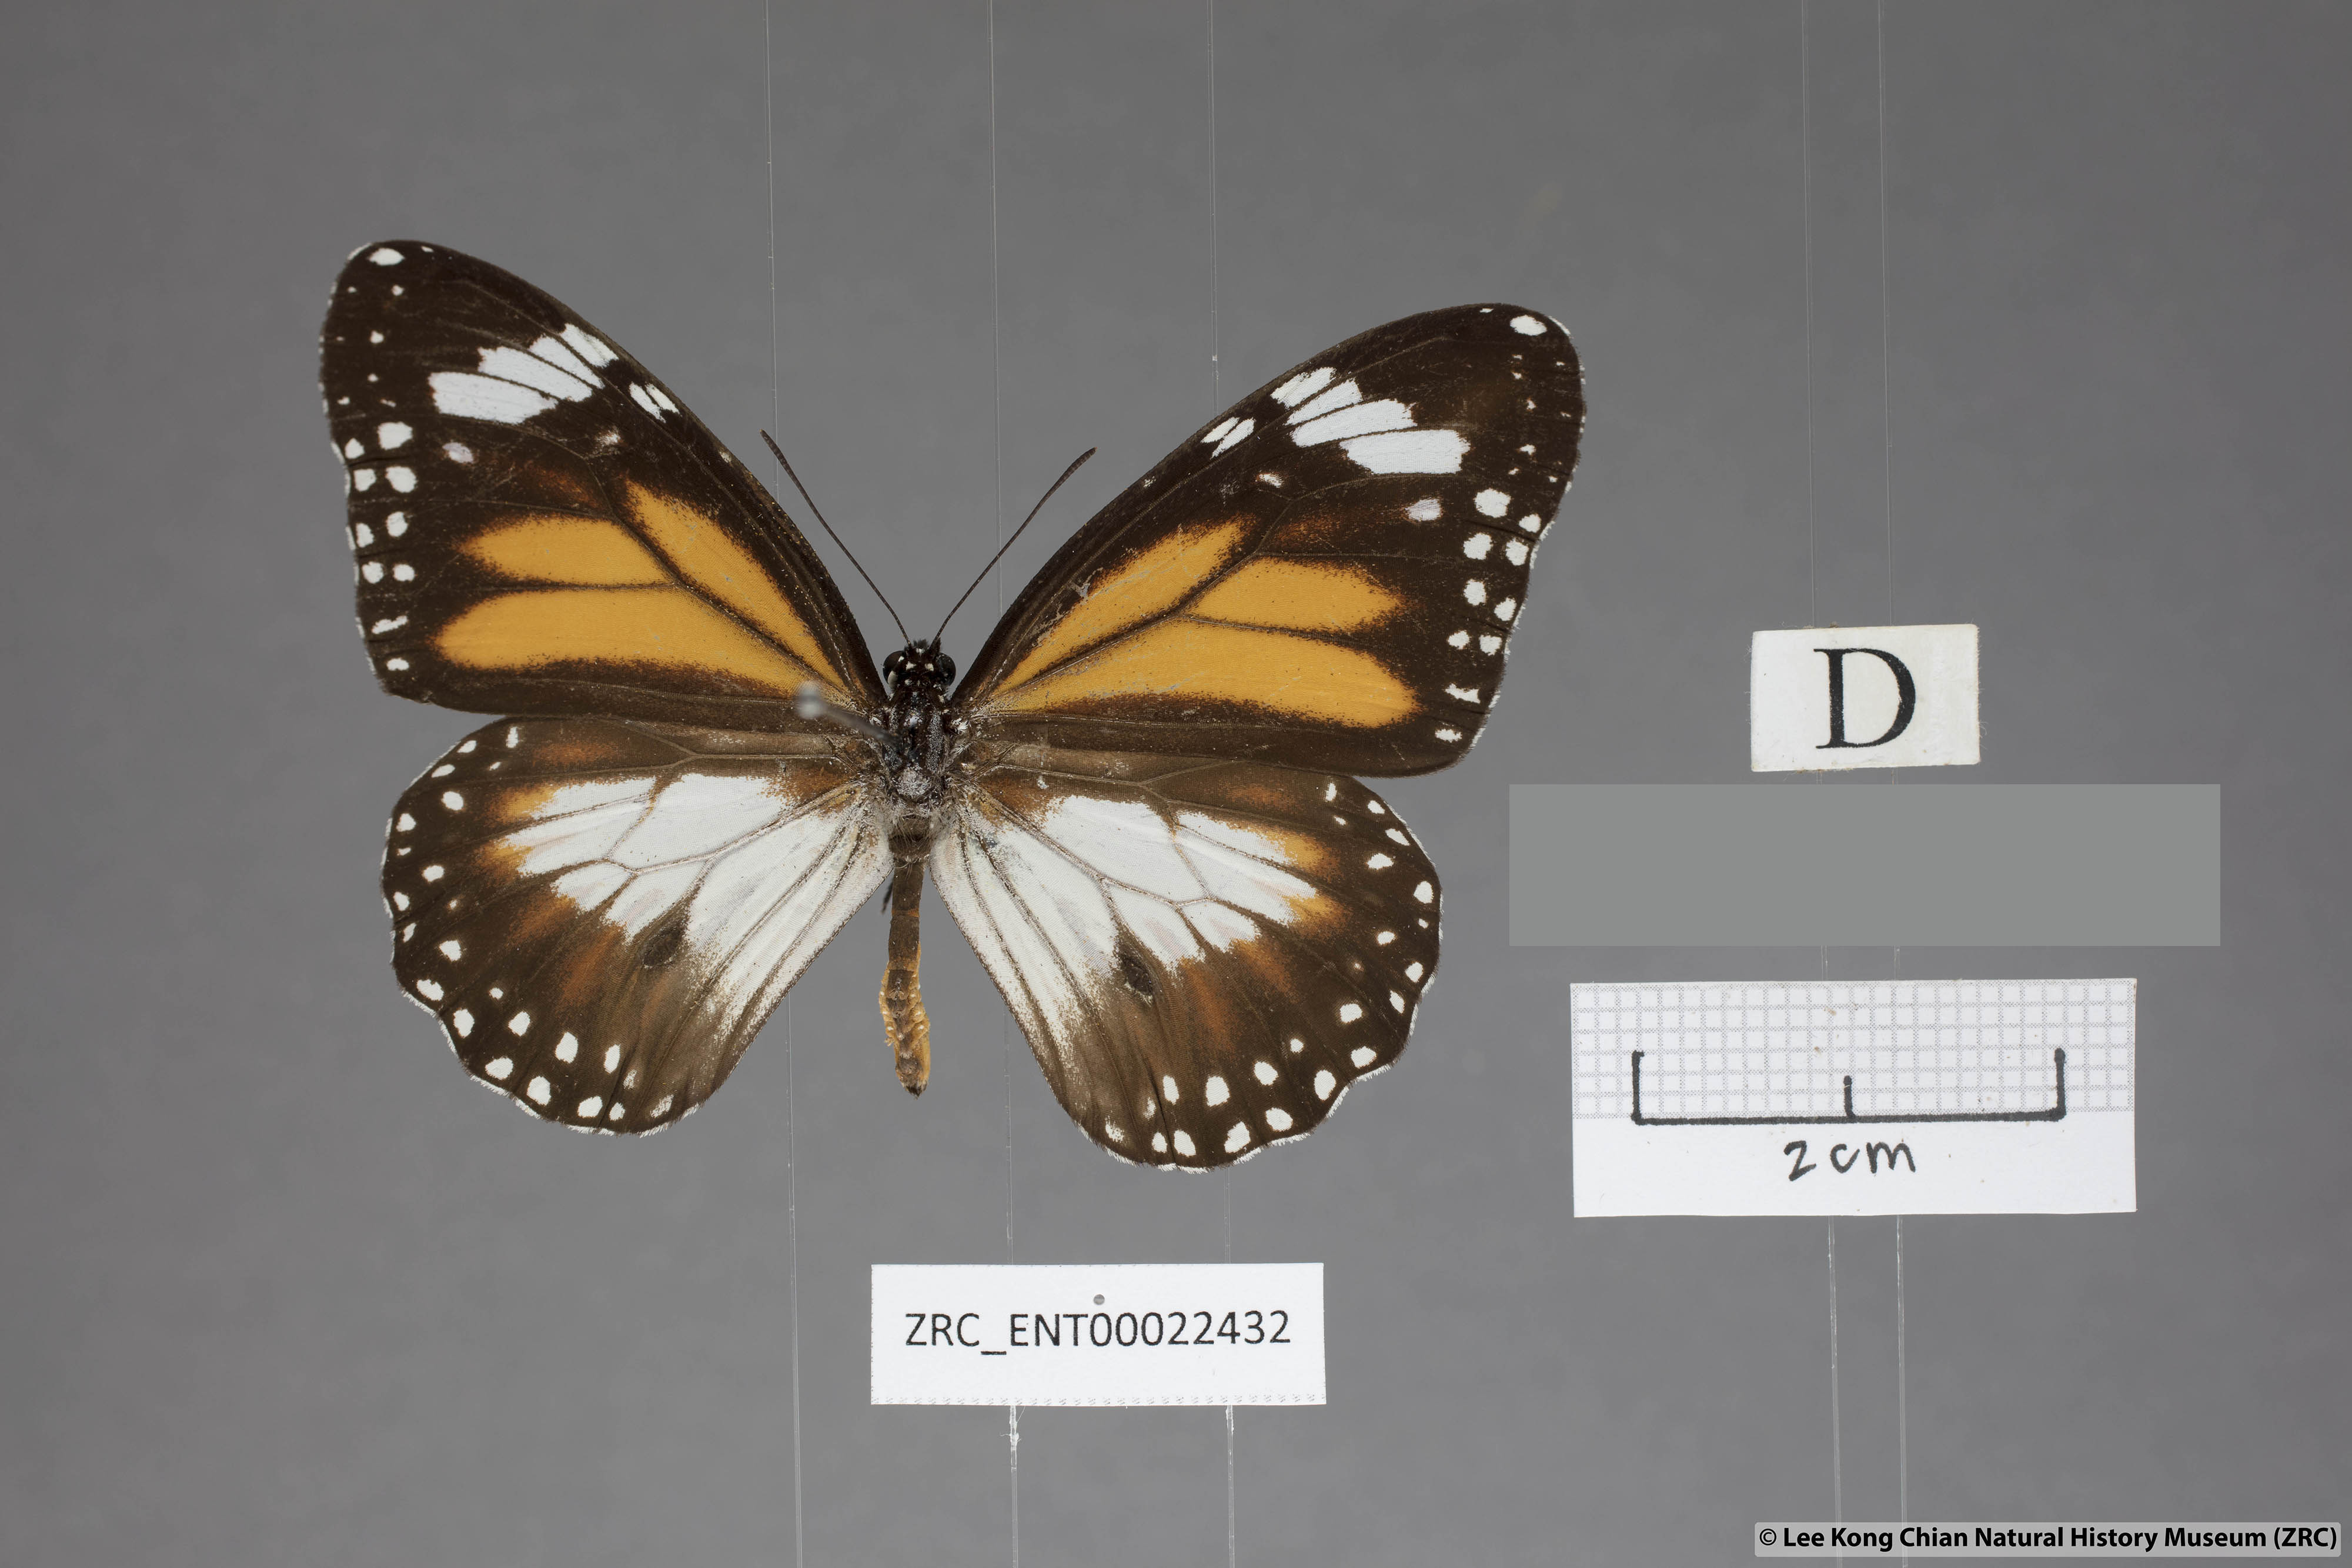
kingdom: Animalia
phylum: Arthropoda
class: Insecta
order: Lepidoptera
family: Nymphalidae
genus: Danaus
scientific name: Danaus affinis
